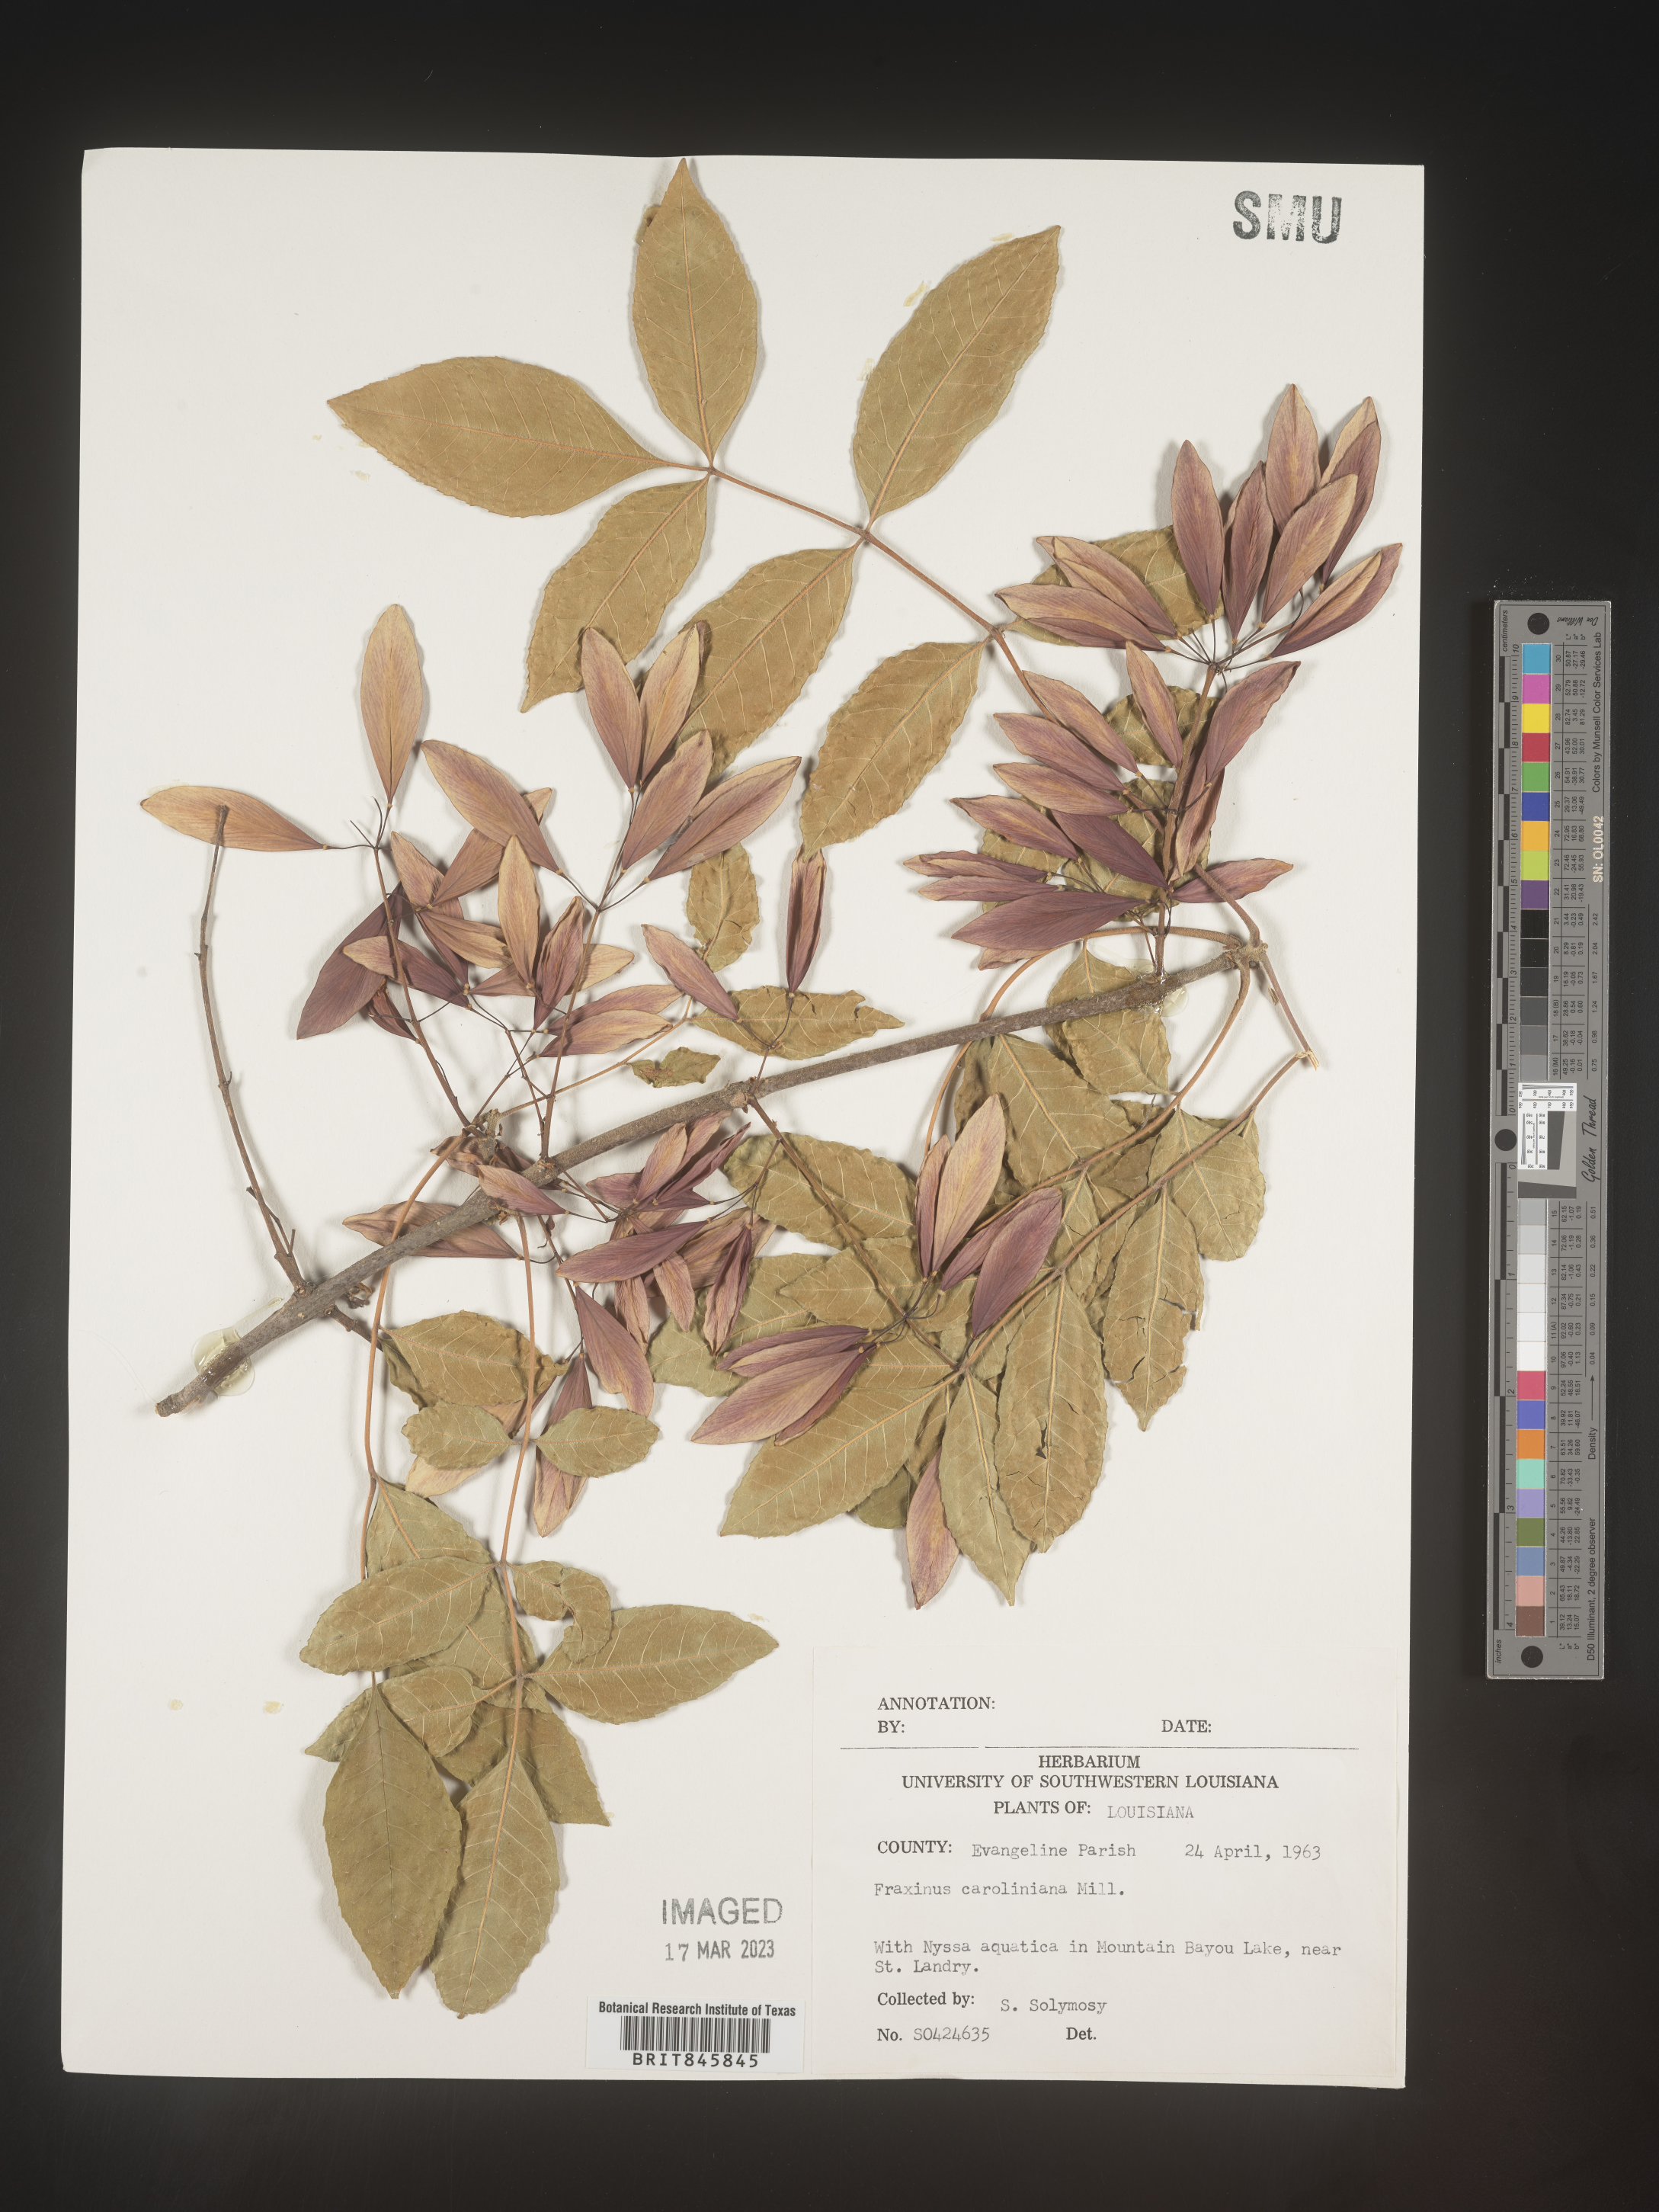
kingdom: Plantae
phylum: Tracheophyta
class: Magnoliopsida
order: Lamiales
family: Oleaceae
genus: Fraxinus
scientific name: Fraxinus caroliniana
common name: Carolina ash
